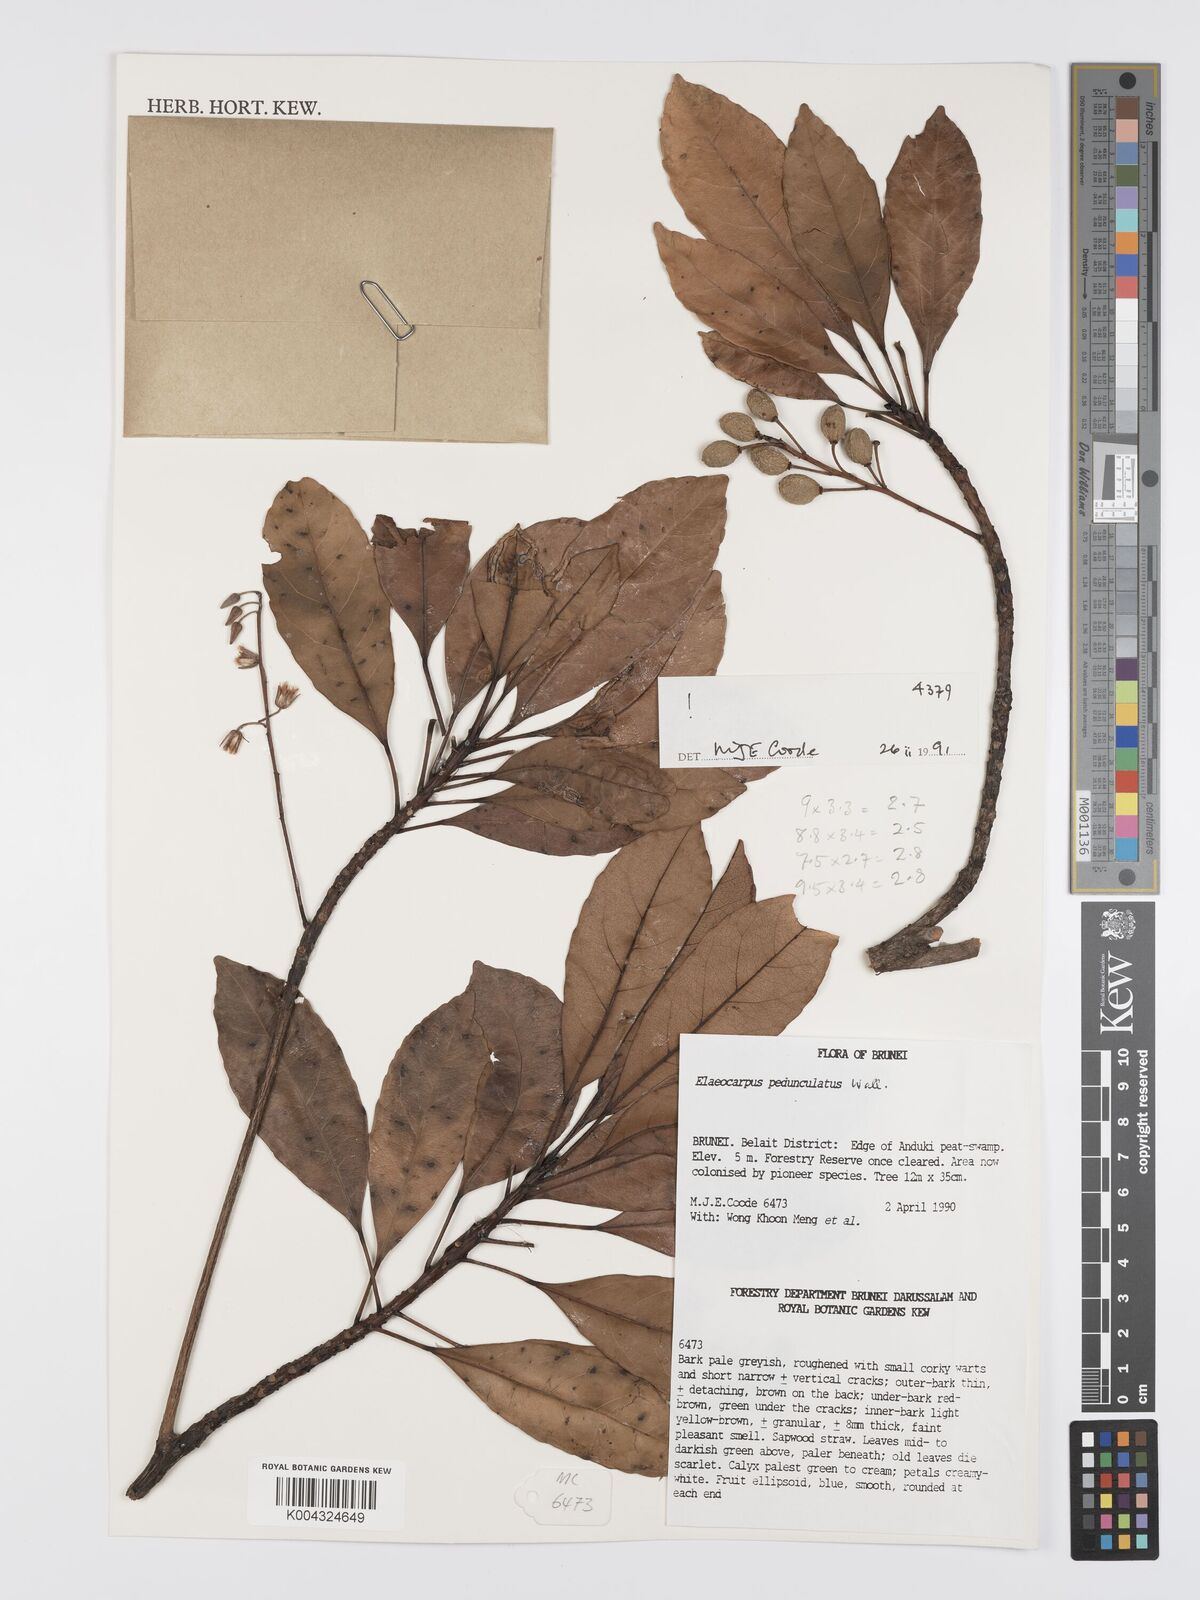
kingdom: Plantae
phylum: Tracheophyta
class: Magnoliopsida
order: Oxalidales
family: Elaeocarpaceae
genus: Elaeocarpus
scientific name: Elaeocarpus pedunculatus
